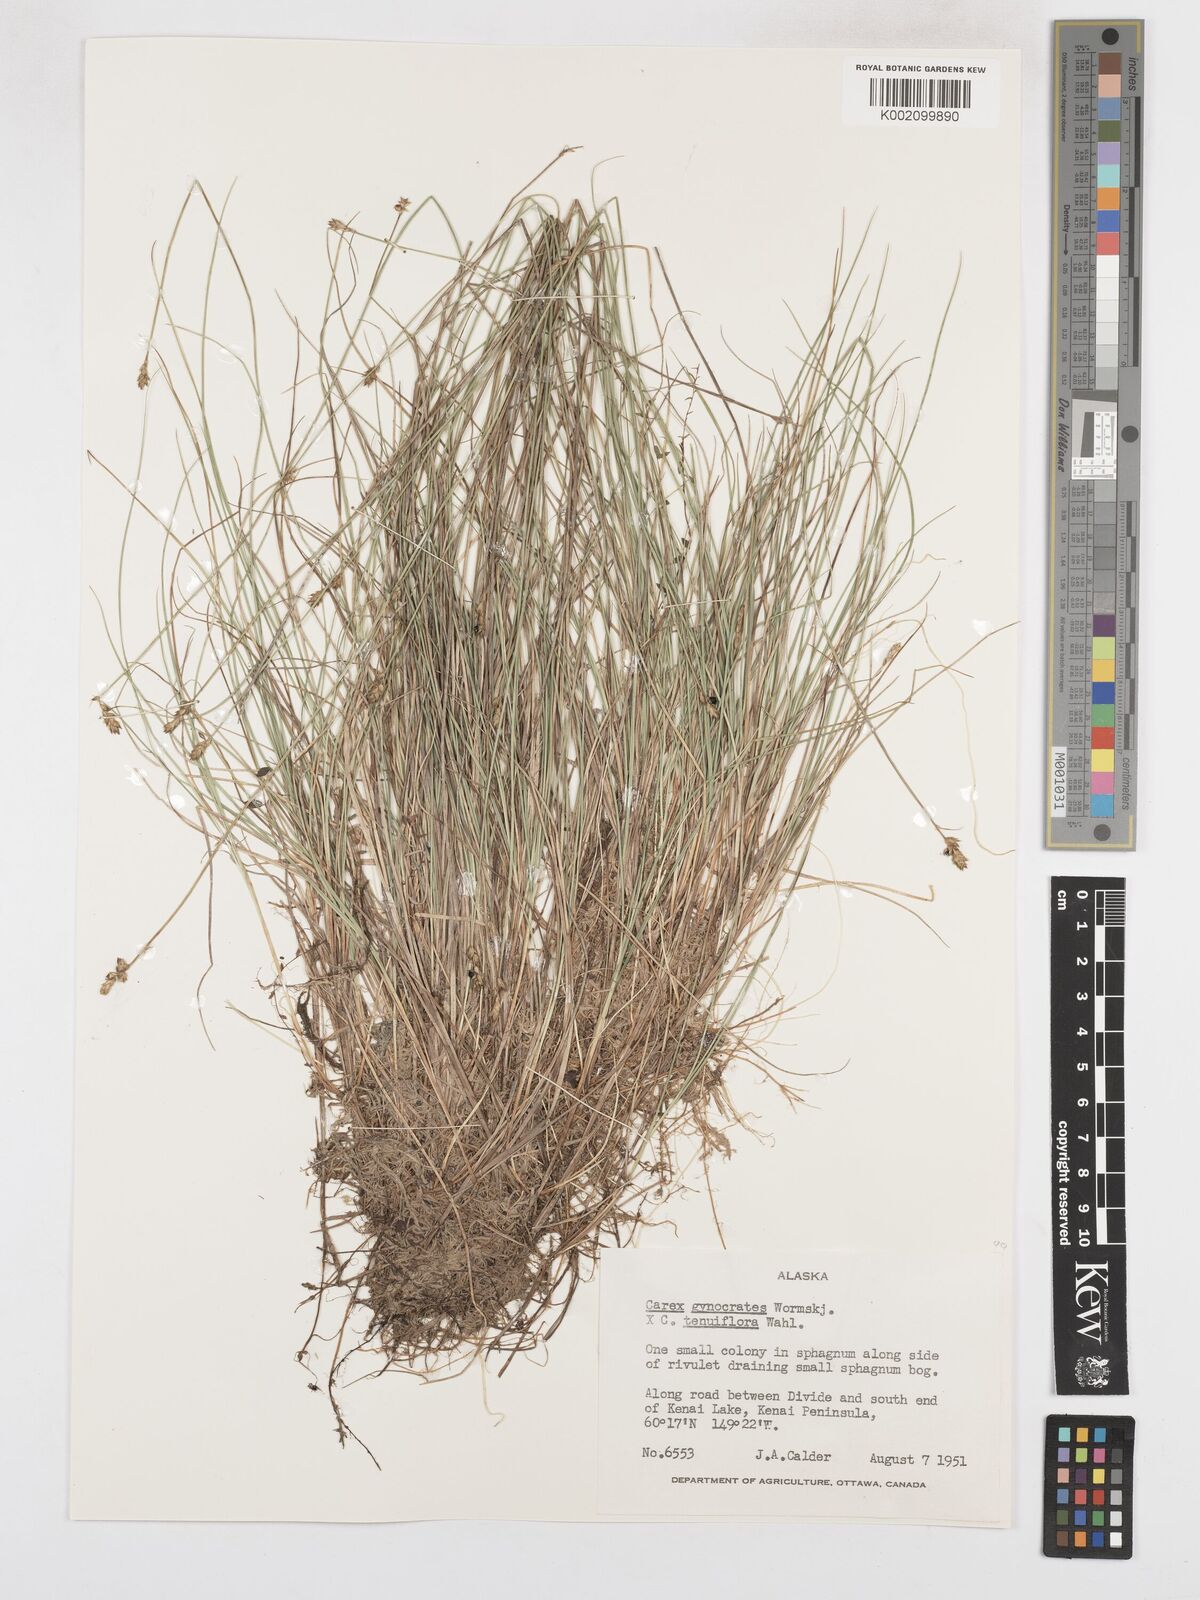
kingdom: Plantae
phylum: Tracheophyta
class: Liliopsida
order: Poales
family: Cyperaceae
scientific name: Cyperaceae
